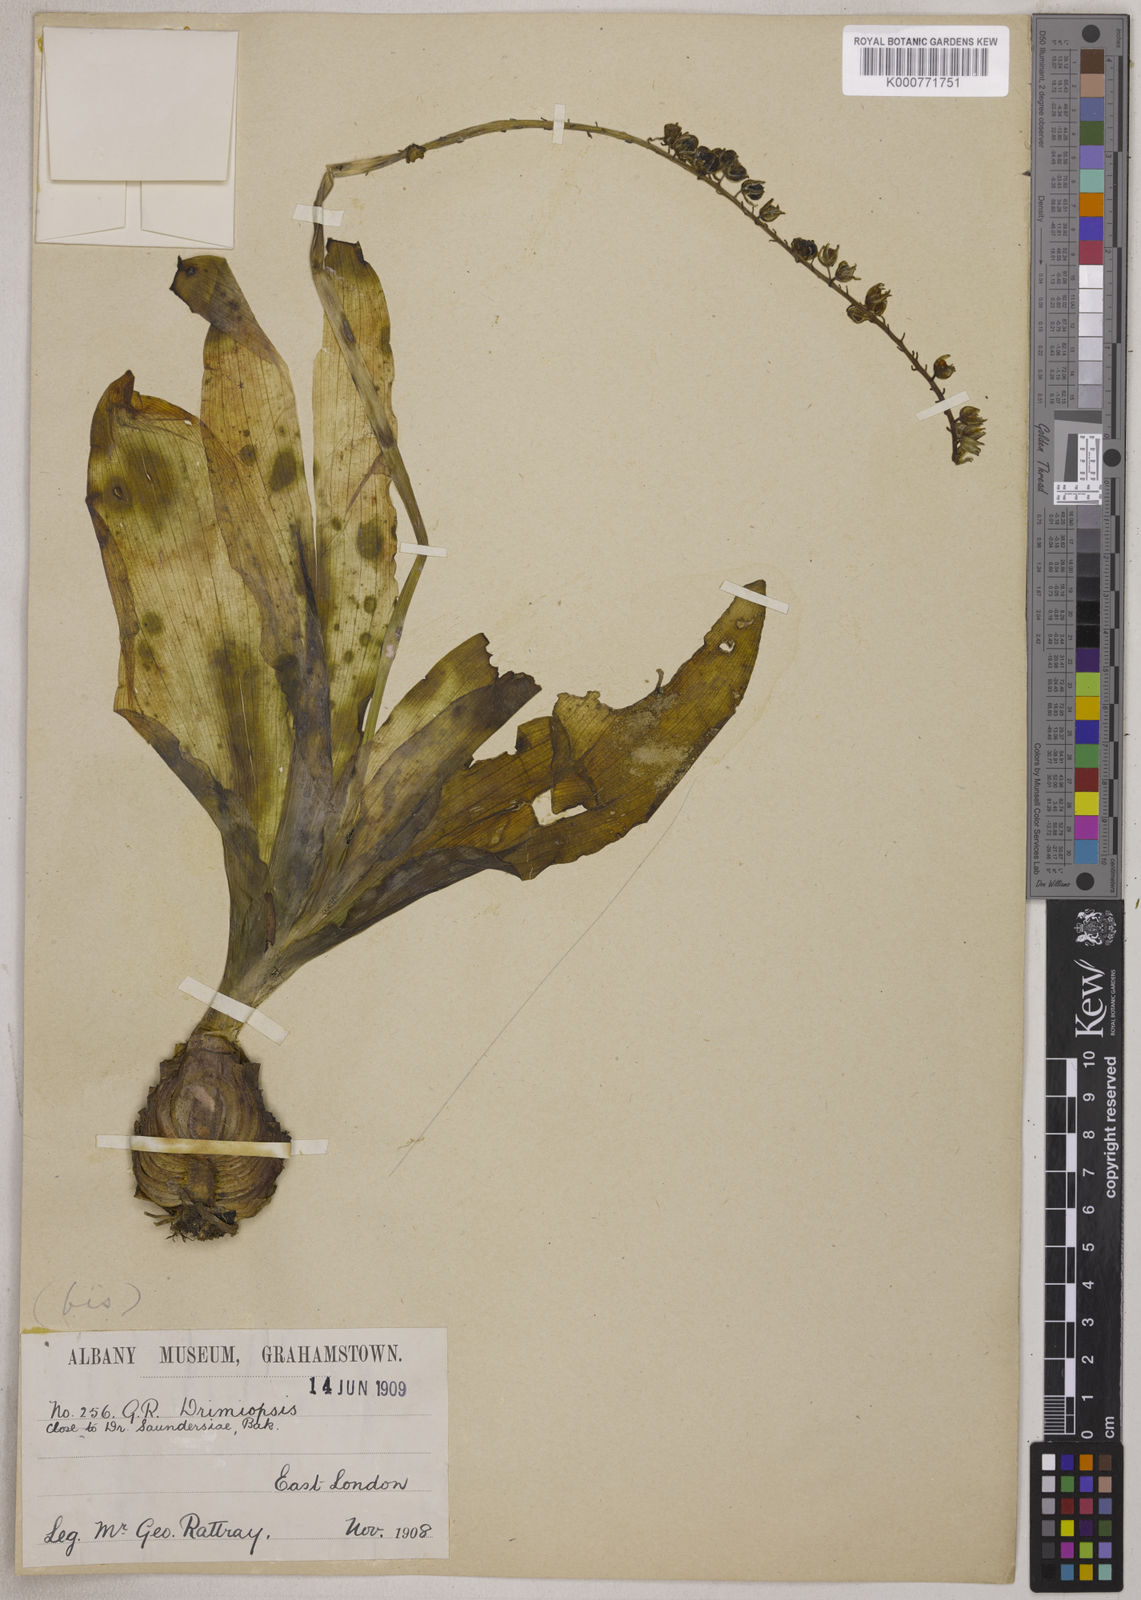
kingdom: Plantae
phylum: Tracheophyta
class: Liliopsida
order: Asparagales
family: Asparagaceae
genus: Resnova
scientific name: Resnova humifusa
